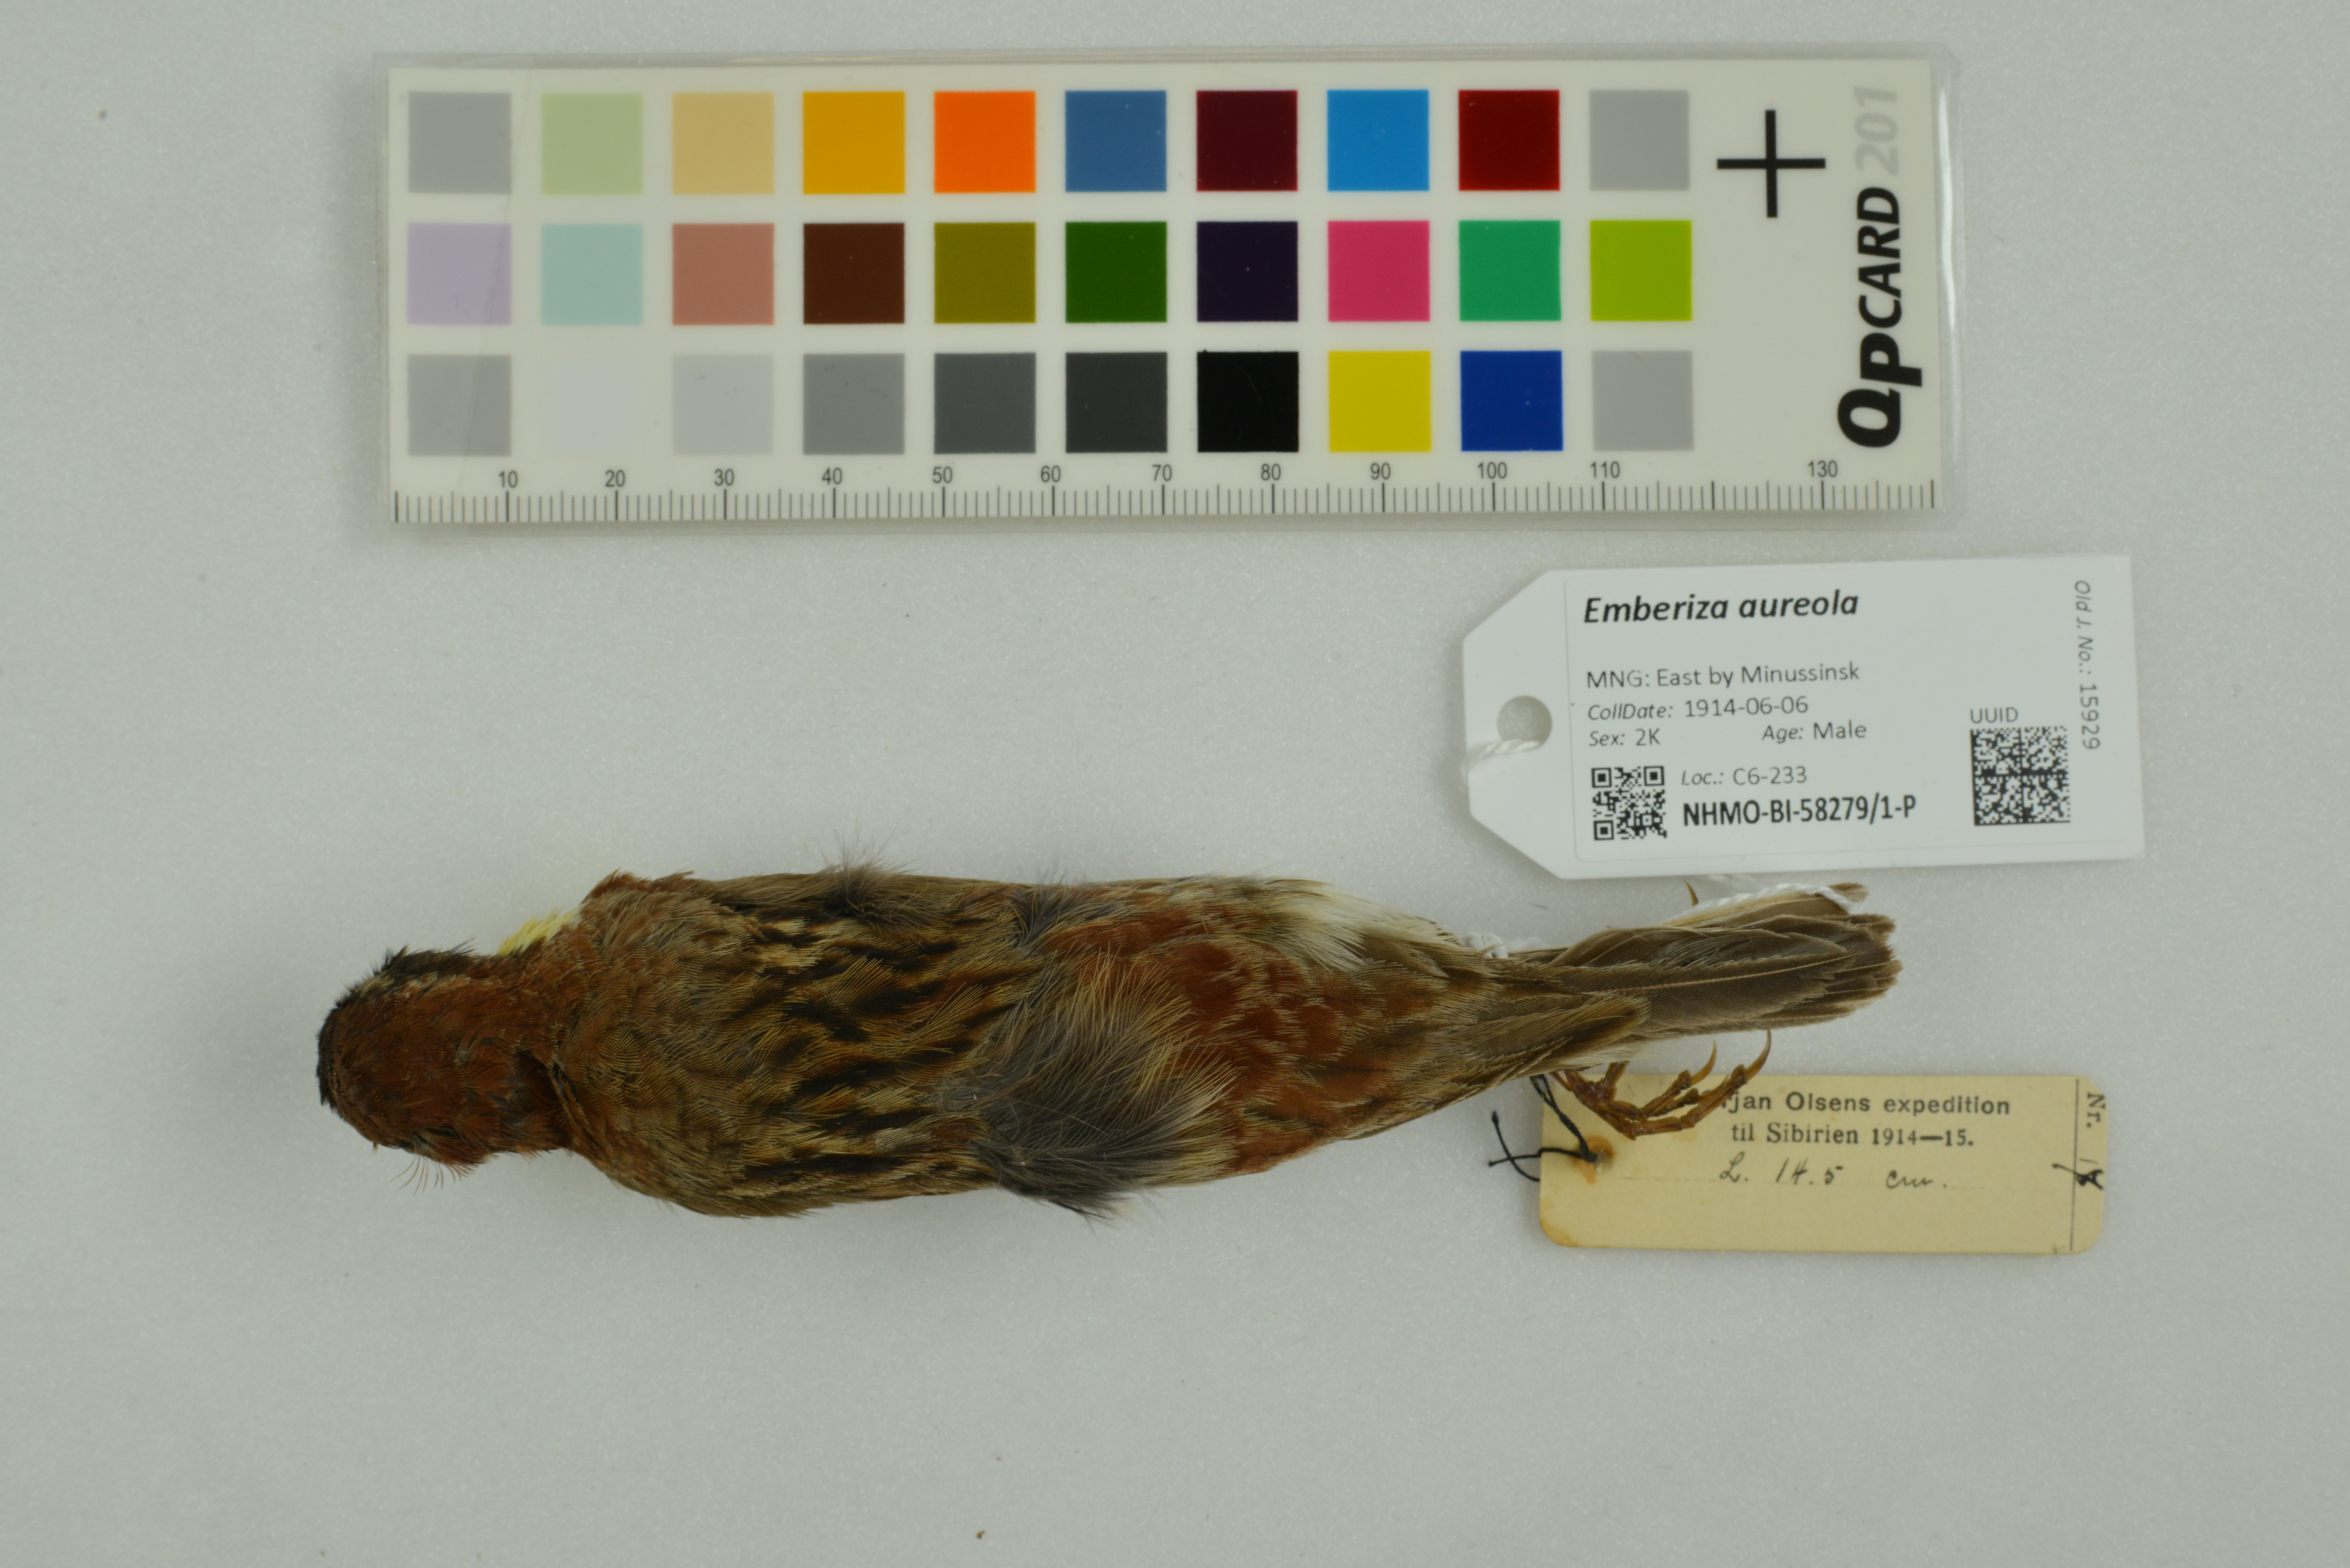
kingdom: Animalia
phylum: Chordata
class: Aves
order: Passeriformes
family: Emberizidae
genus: Emberiza
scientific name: Emberiza aureola
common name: Yellow-breasted bunting
